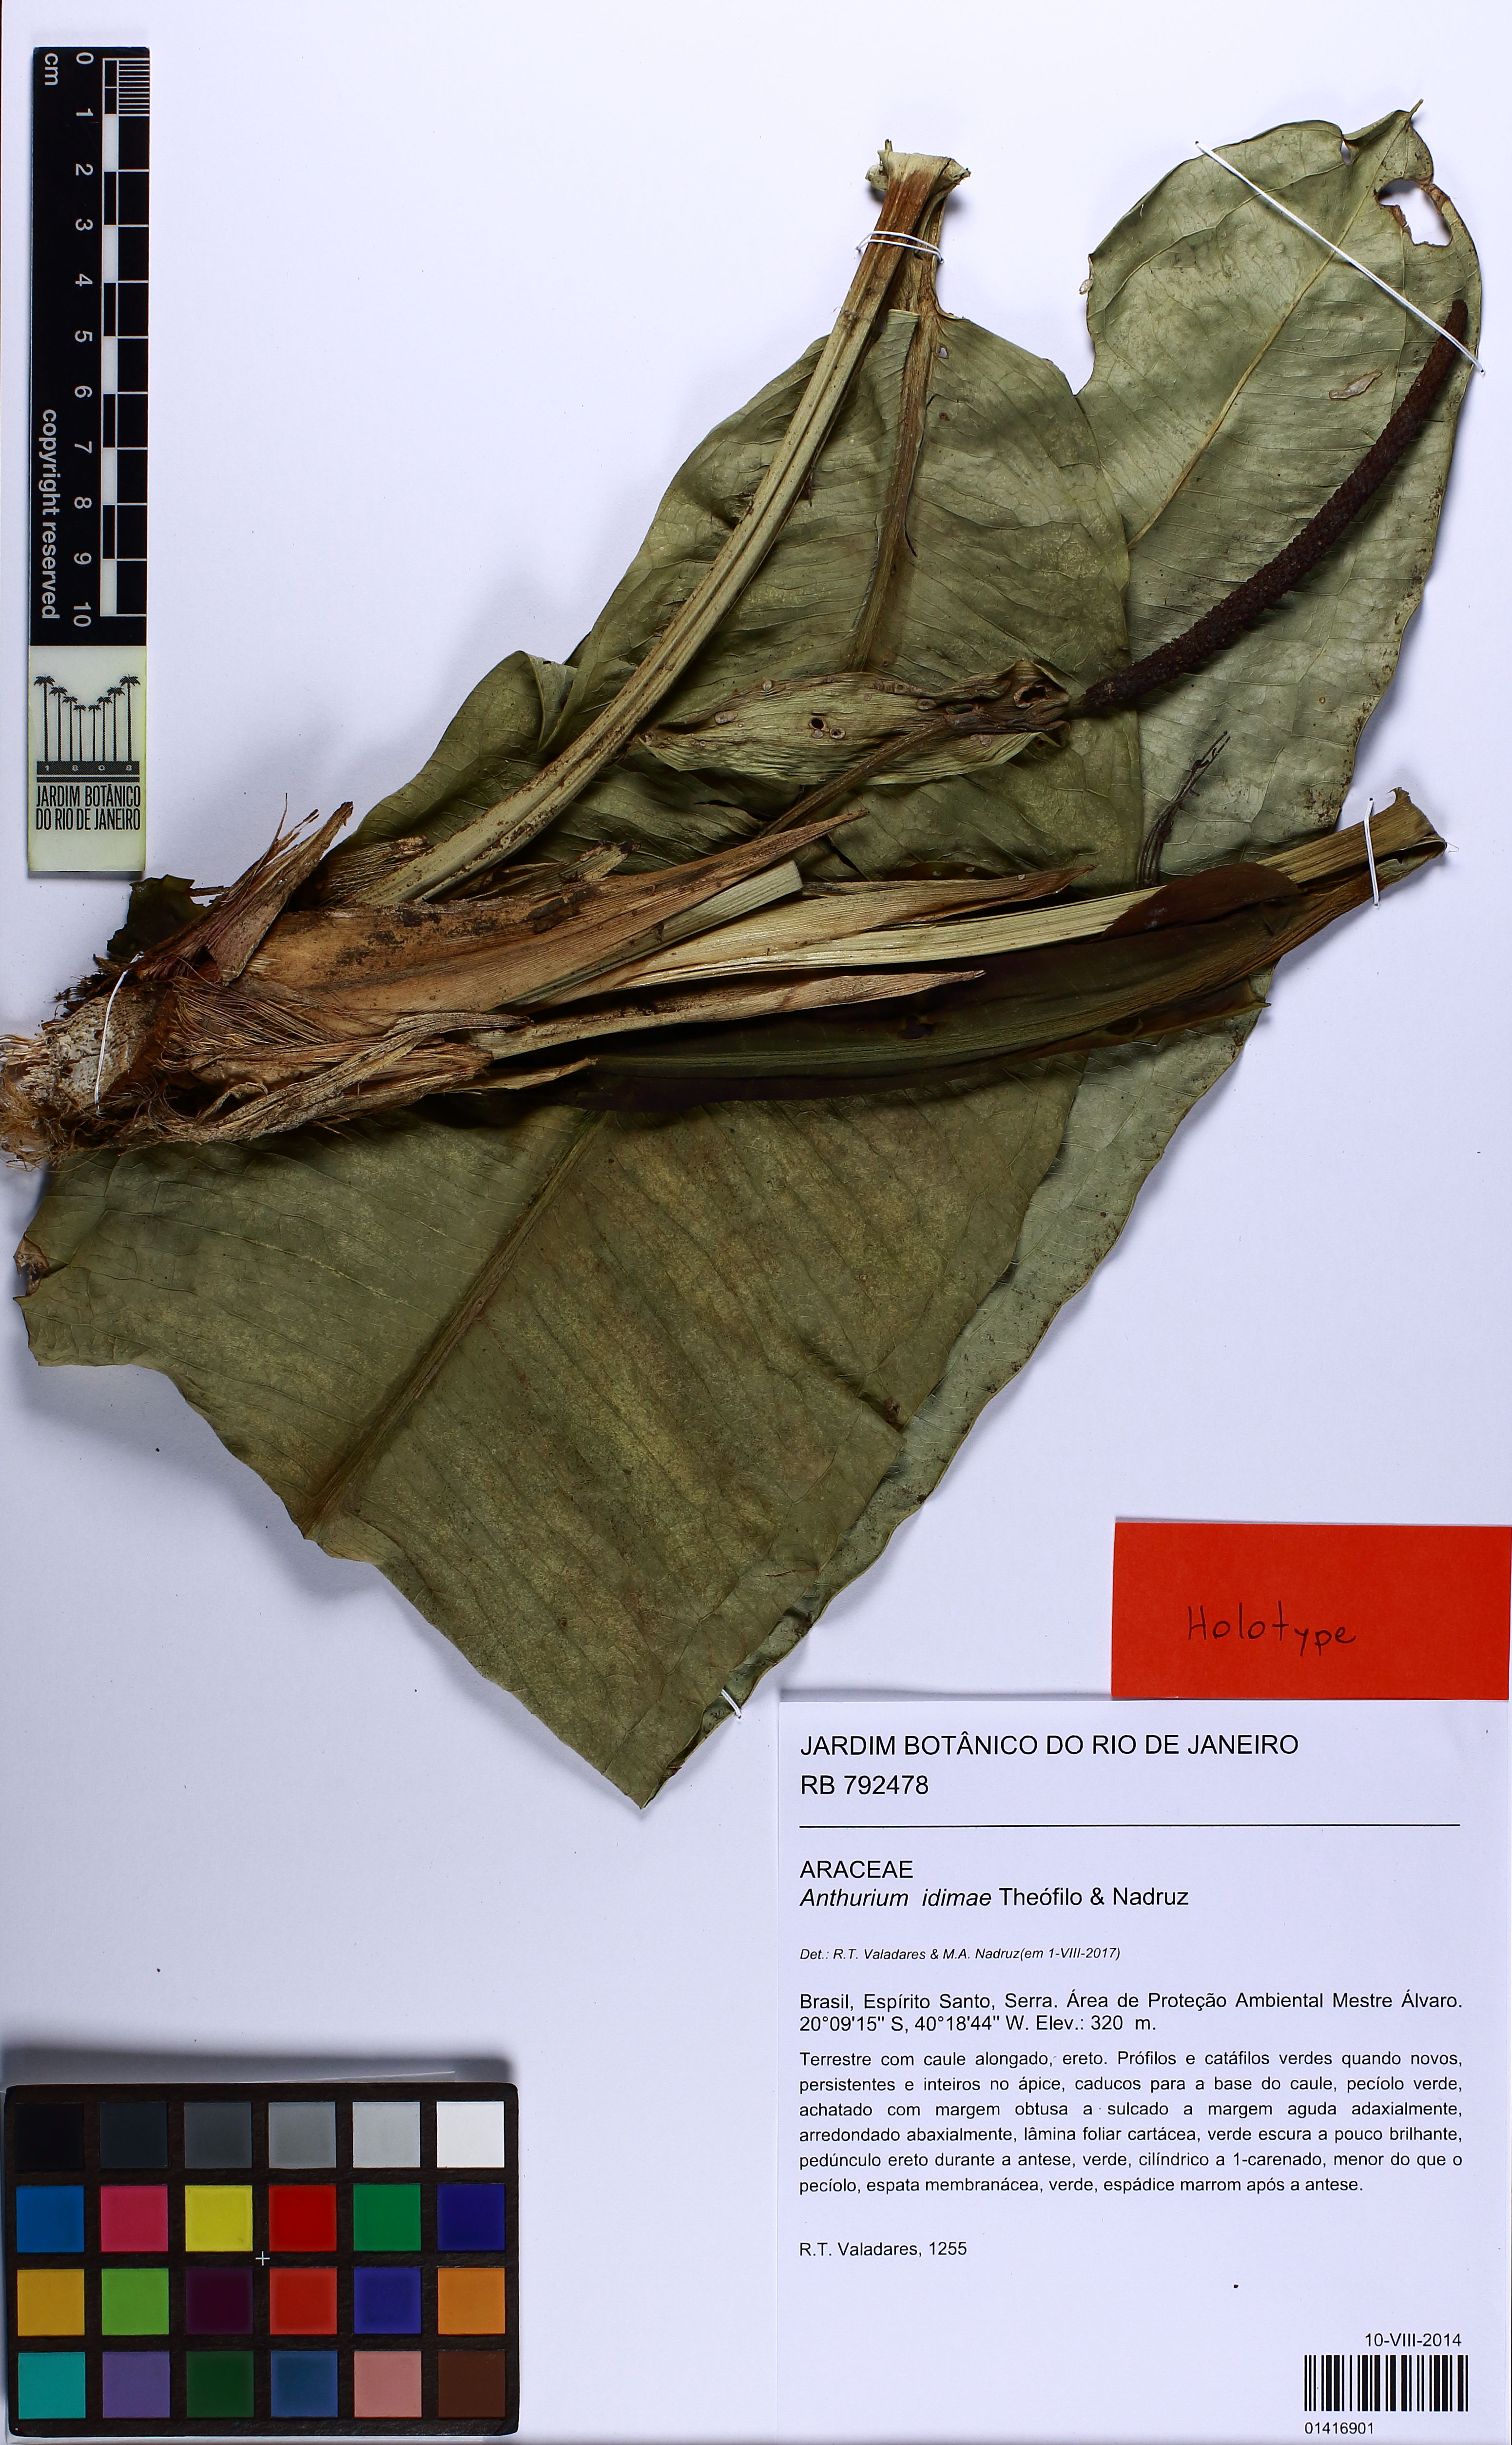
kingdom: Plantae
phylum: Tracheophyta
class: Liliopsida
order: Alismatales
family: Araceae
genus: Anthurium
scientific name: Anthurium idimae
